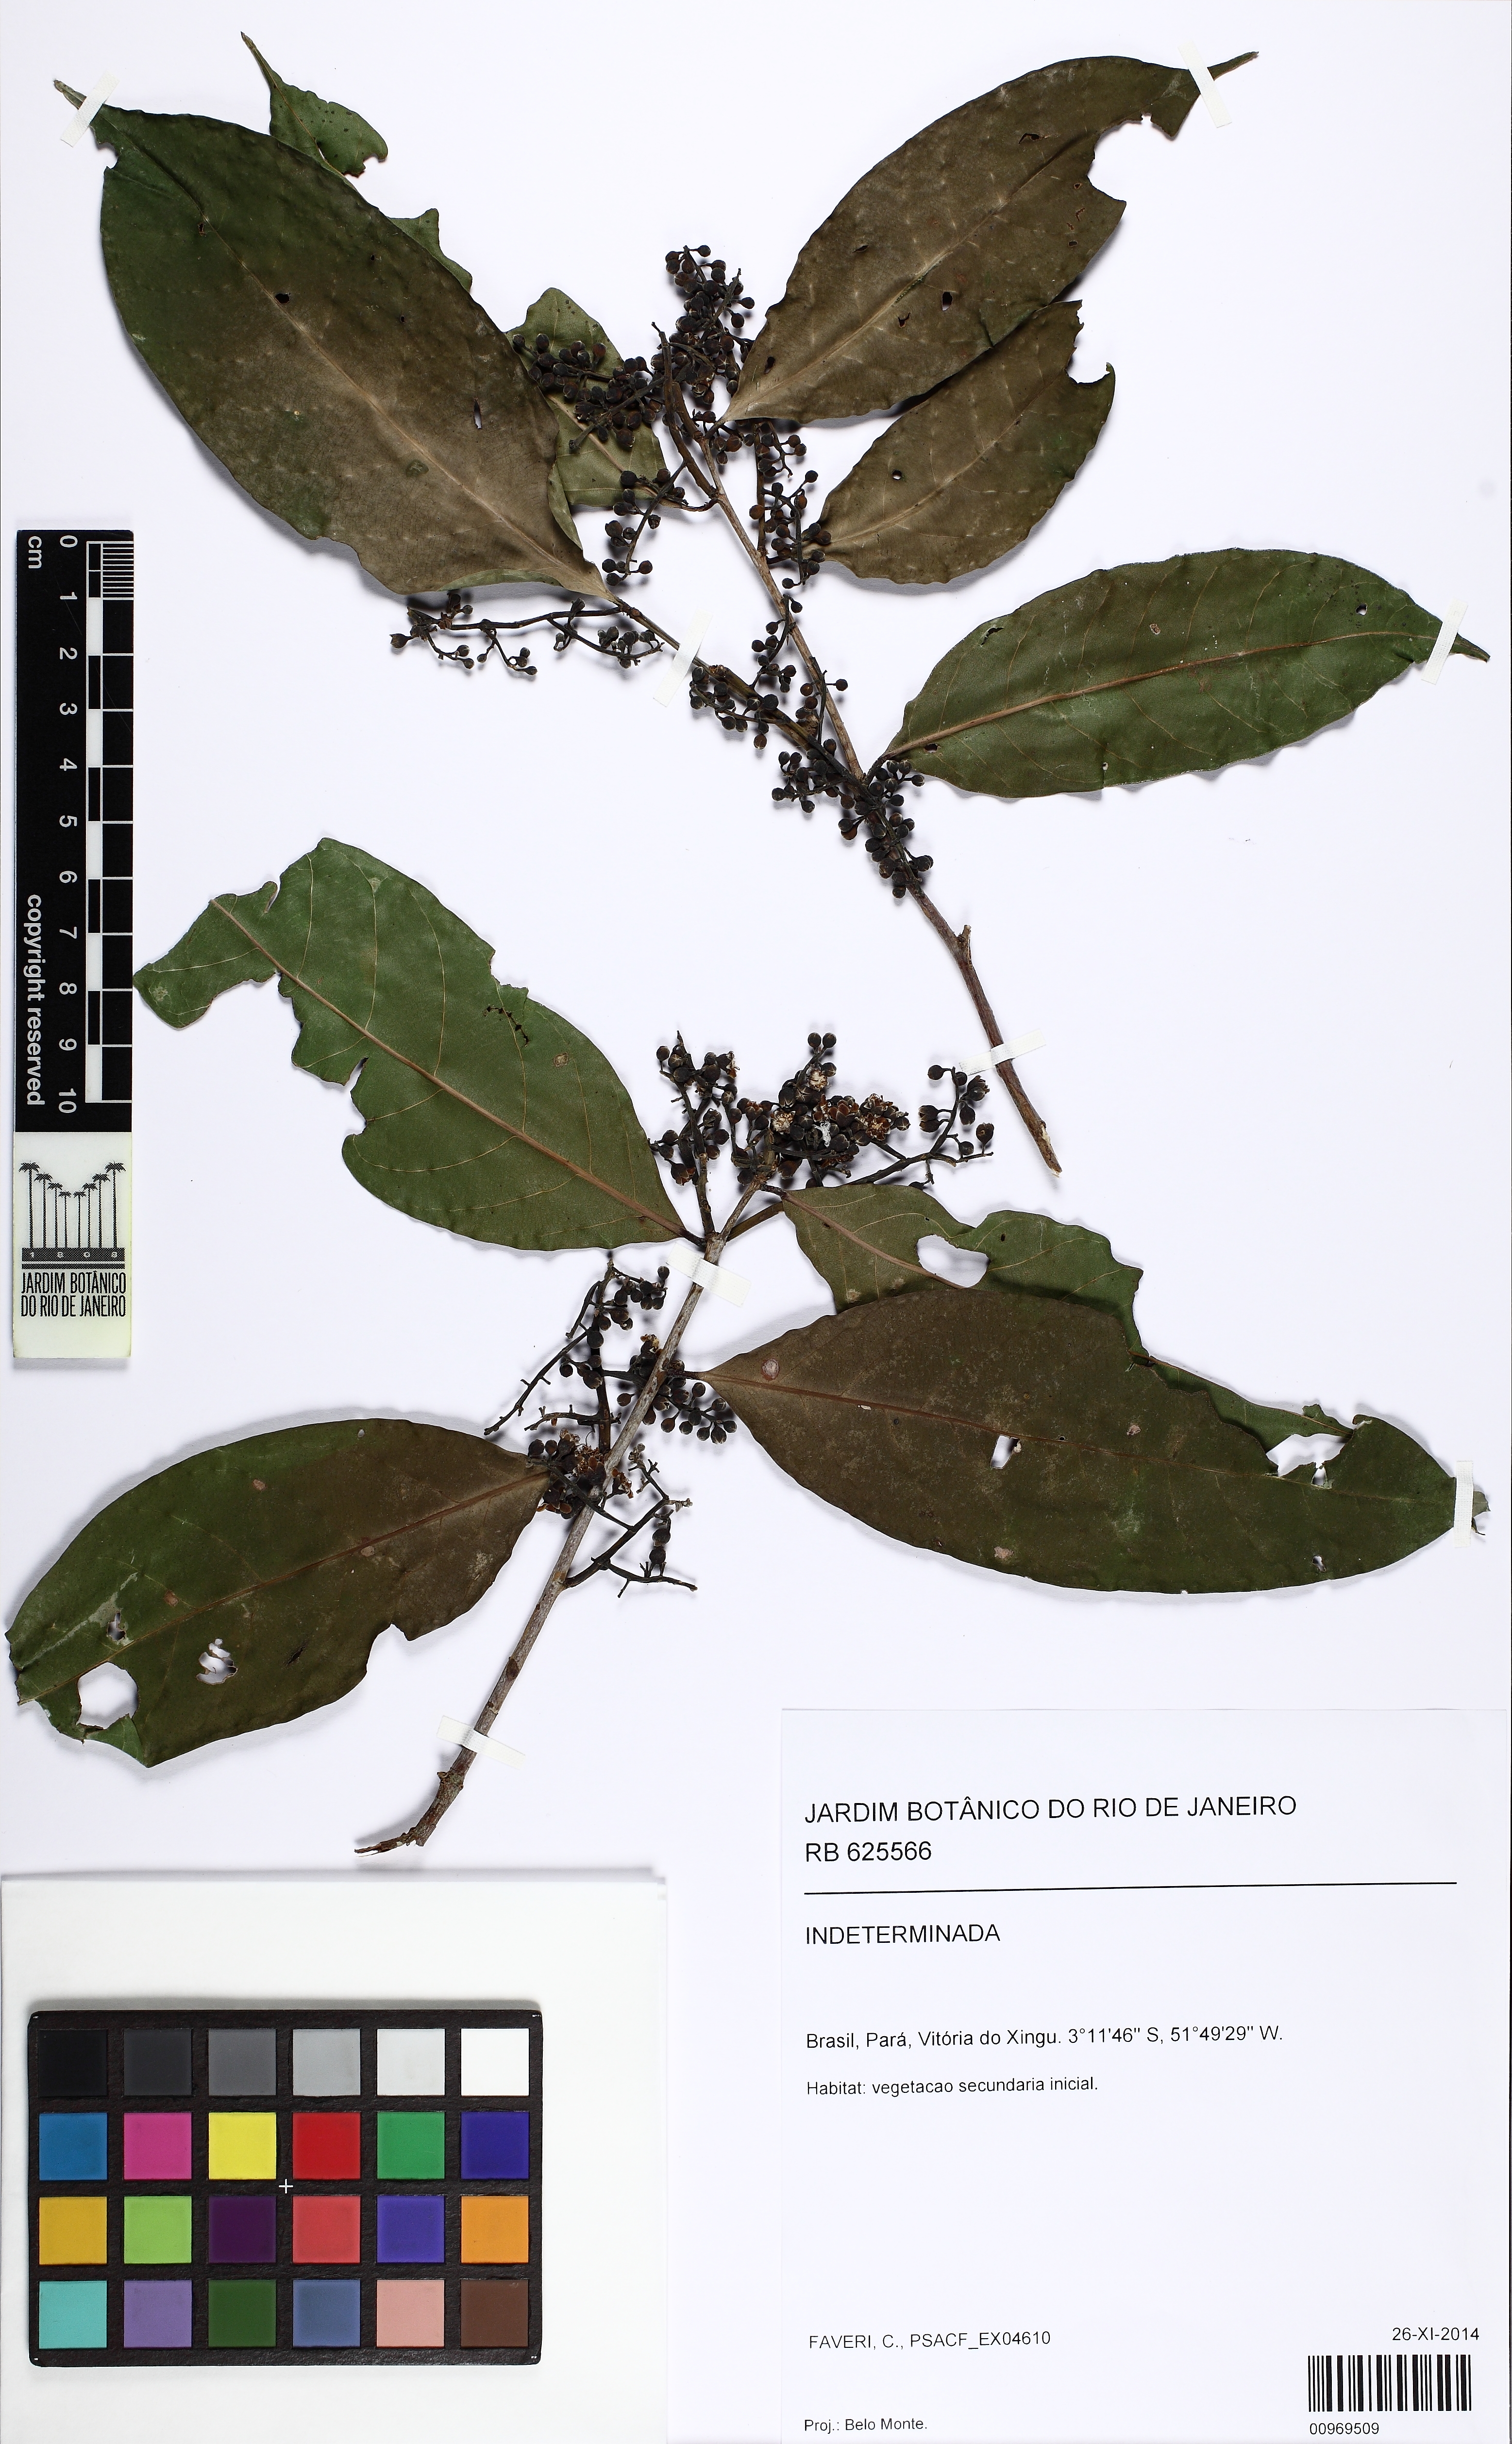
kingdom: Plantae
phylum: Tracheophyta
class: Magnoliopsida
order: Malpighiales
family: Chrysobalanaceae
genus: Moquilea
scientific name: Moquilea guianensis
